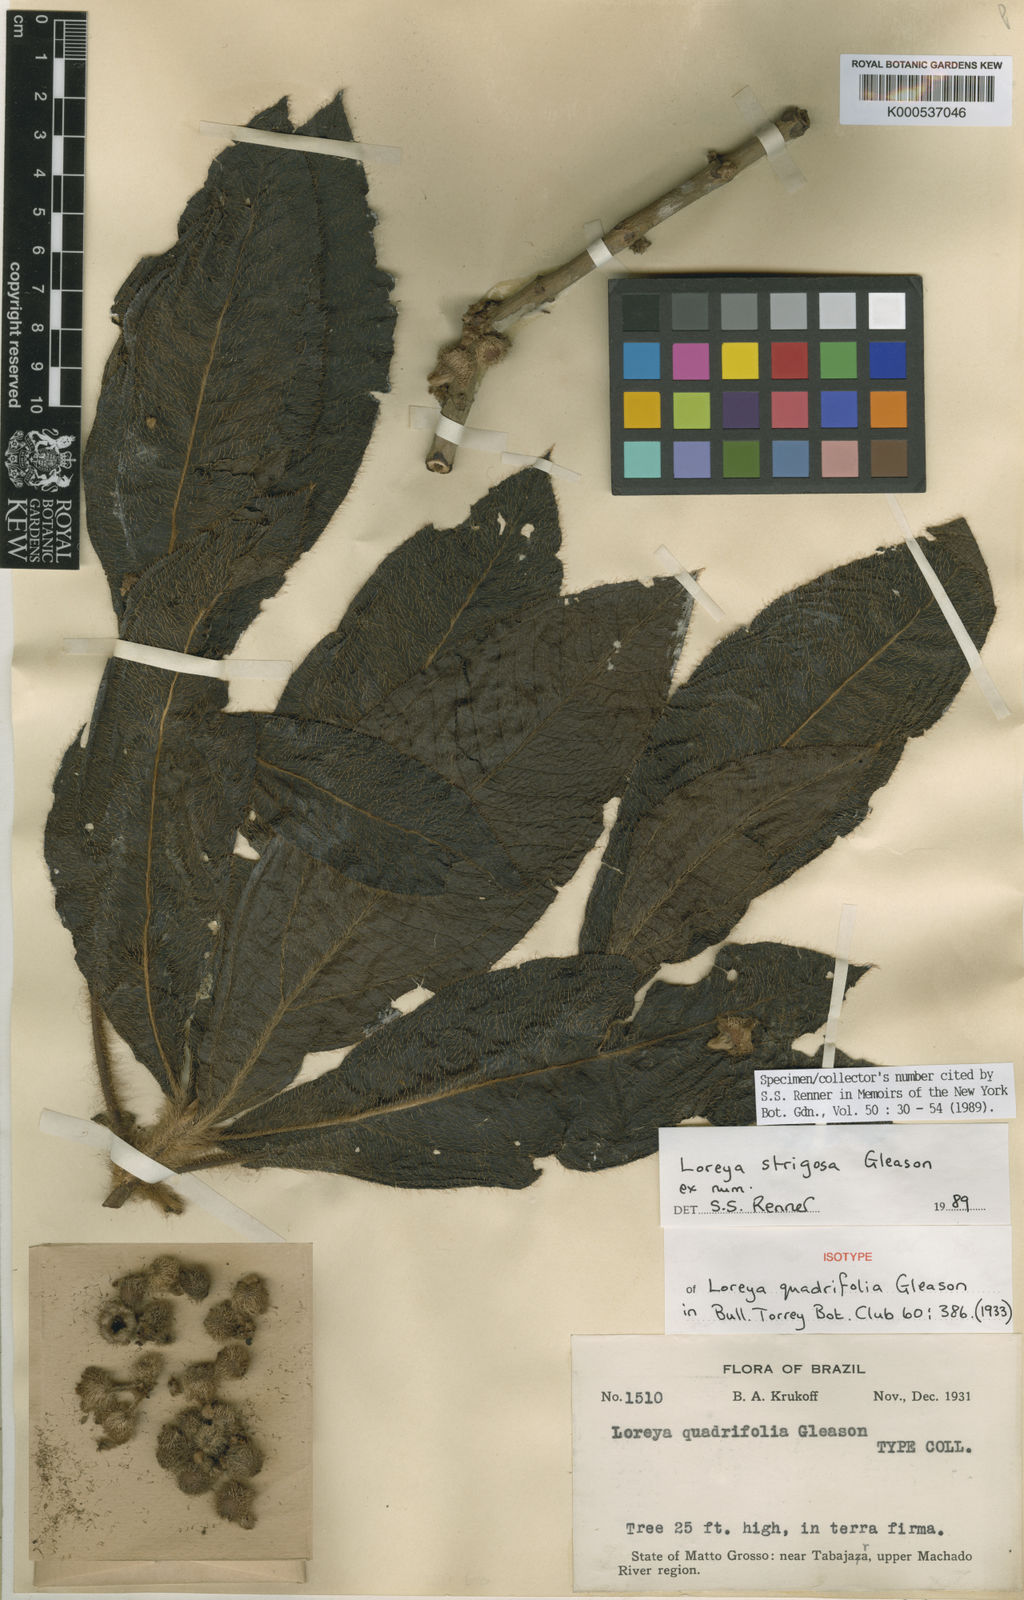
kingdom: Plantae
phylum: Tracheophyta
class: Magnoliopsida
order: Myrtales
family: Melastomataceae
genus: Bellucia
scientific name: Bellucia strigosa
